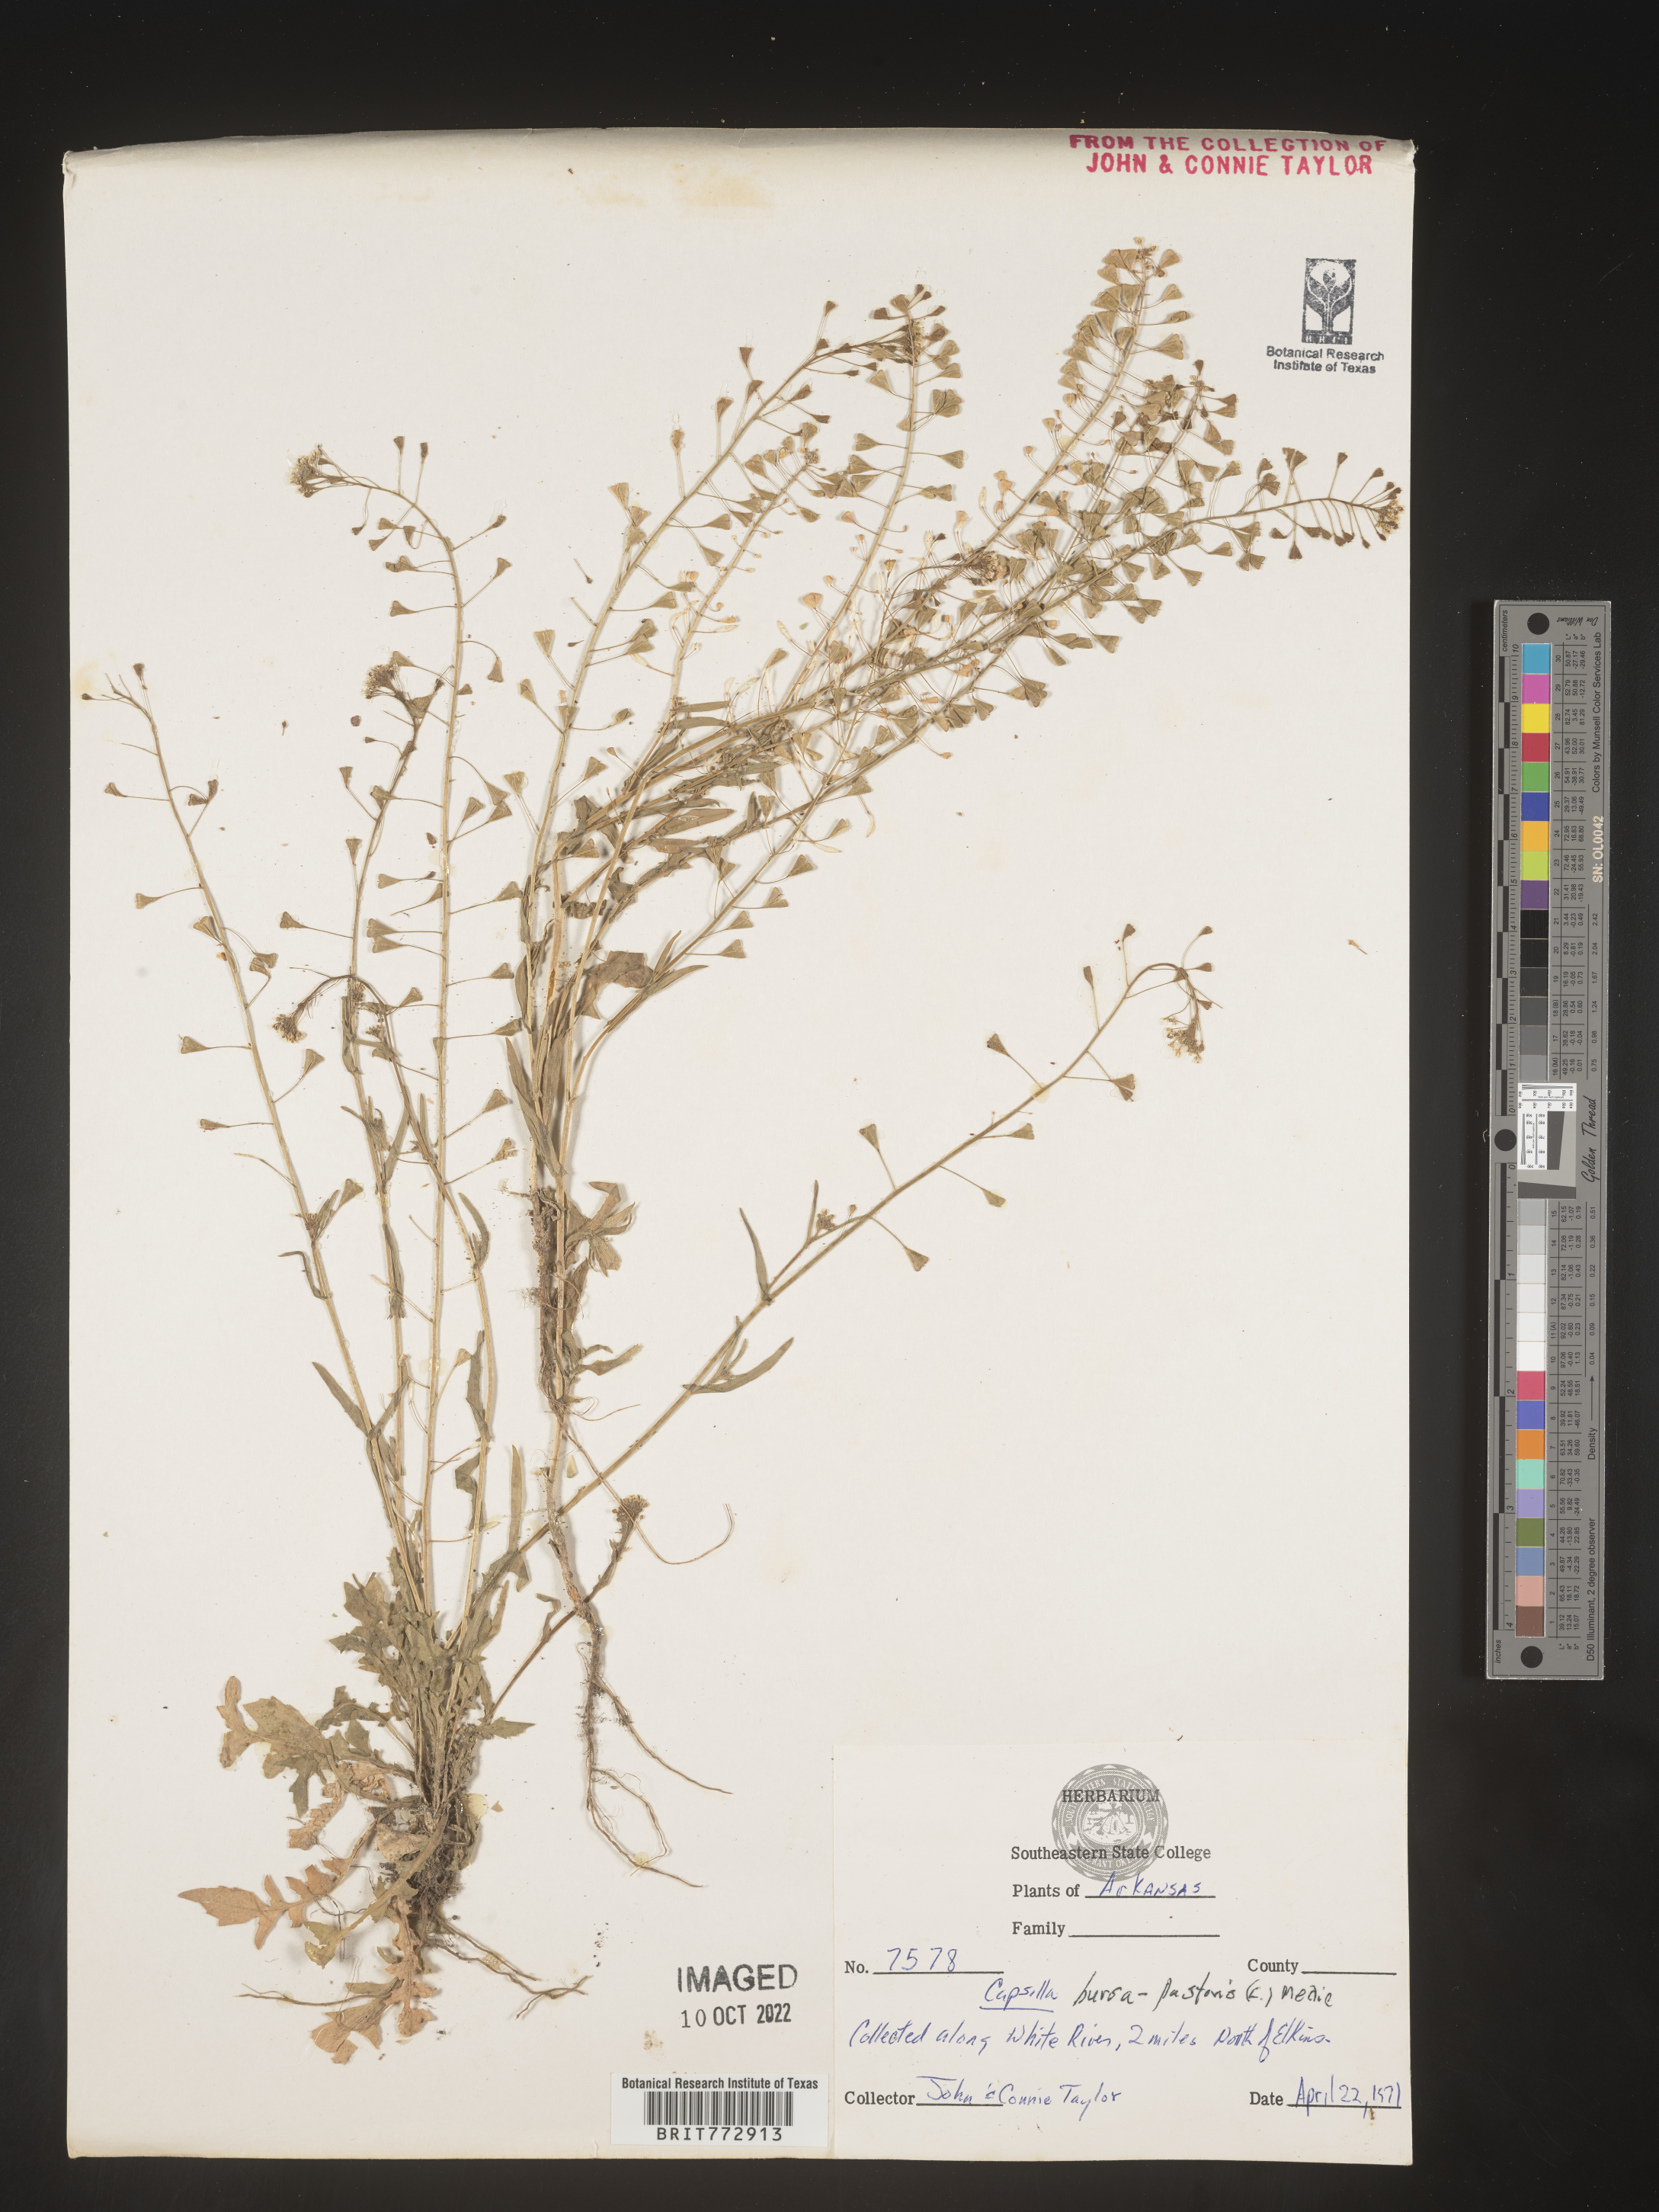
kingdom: Plantae
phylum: Tracheophyta
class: Magnoliopsida
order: Brassicales
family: Brassicaceae
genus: Capsella
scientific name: Capsella bursa-pastoris
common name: Shepherd's purse
